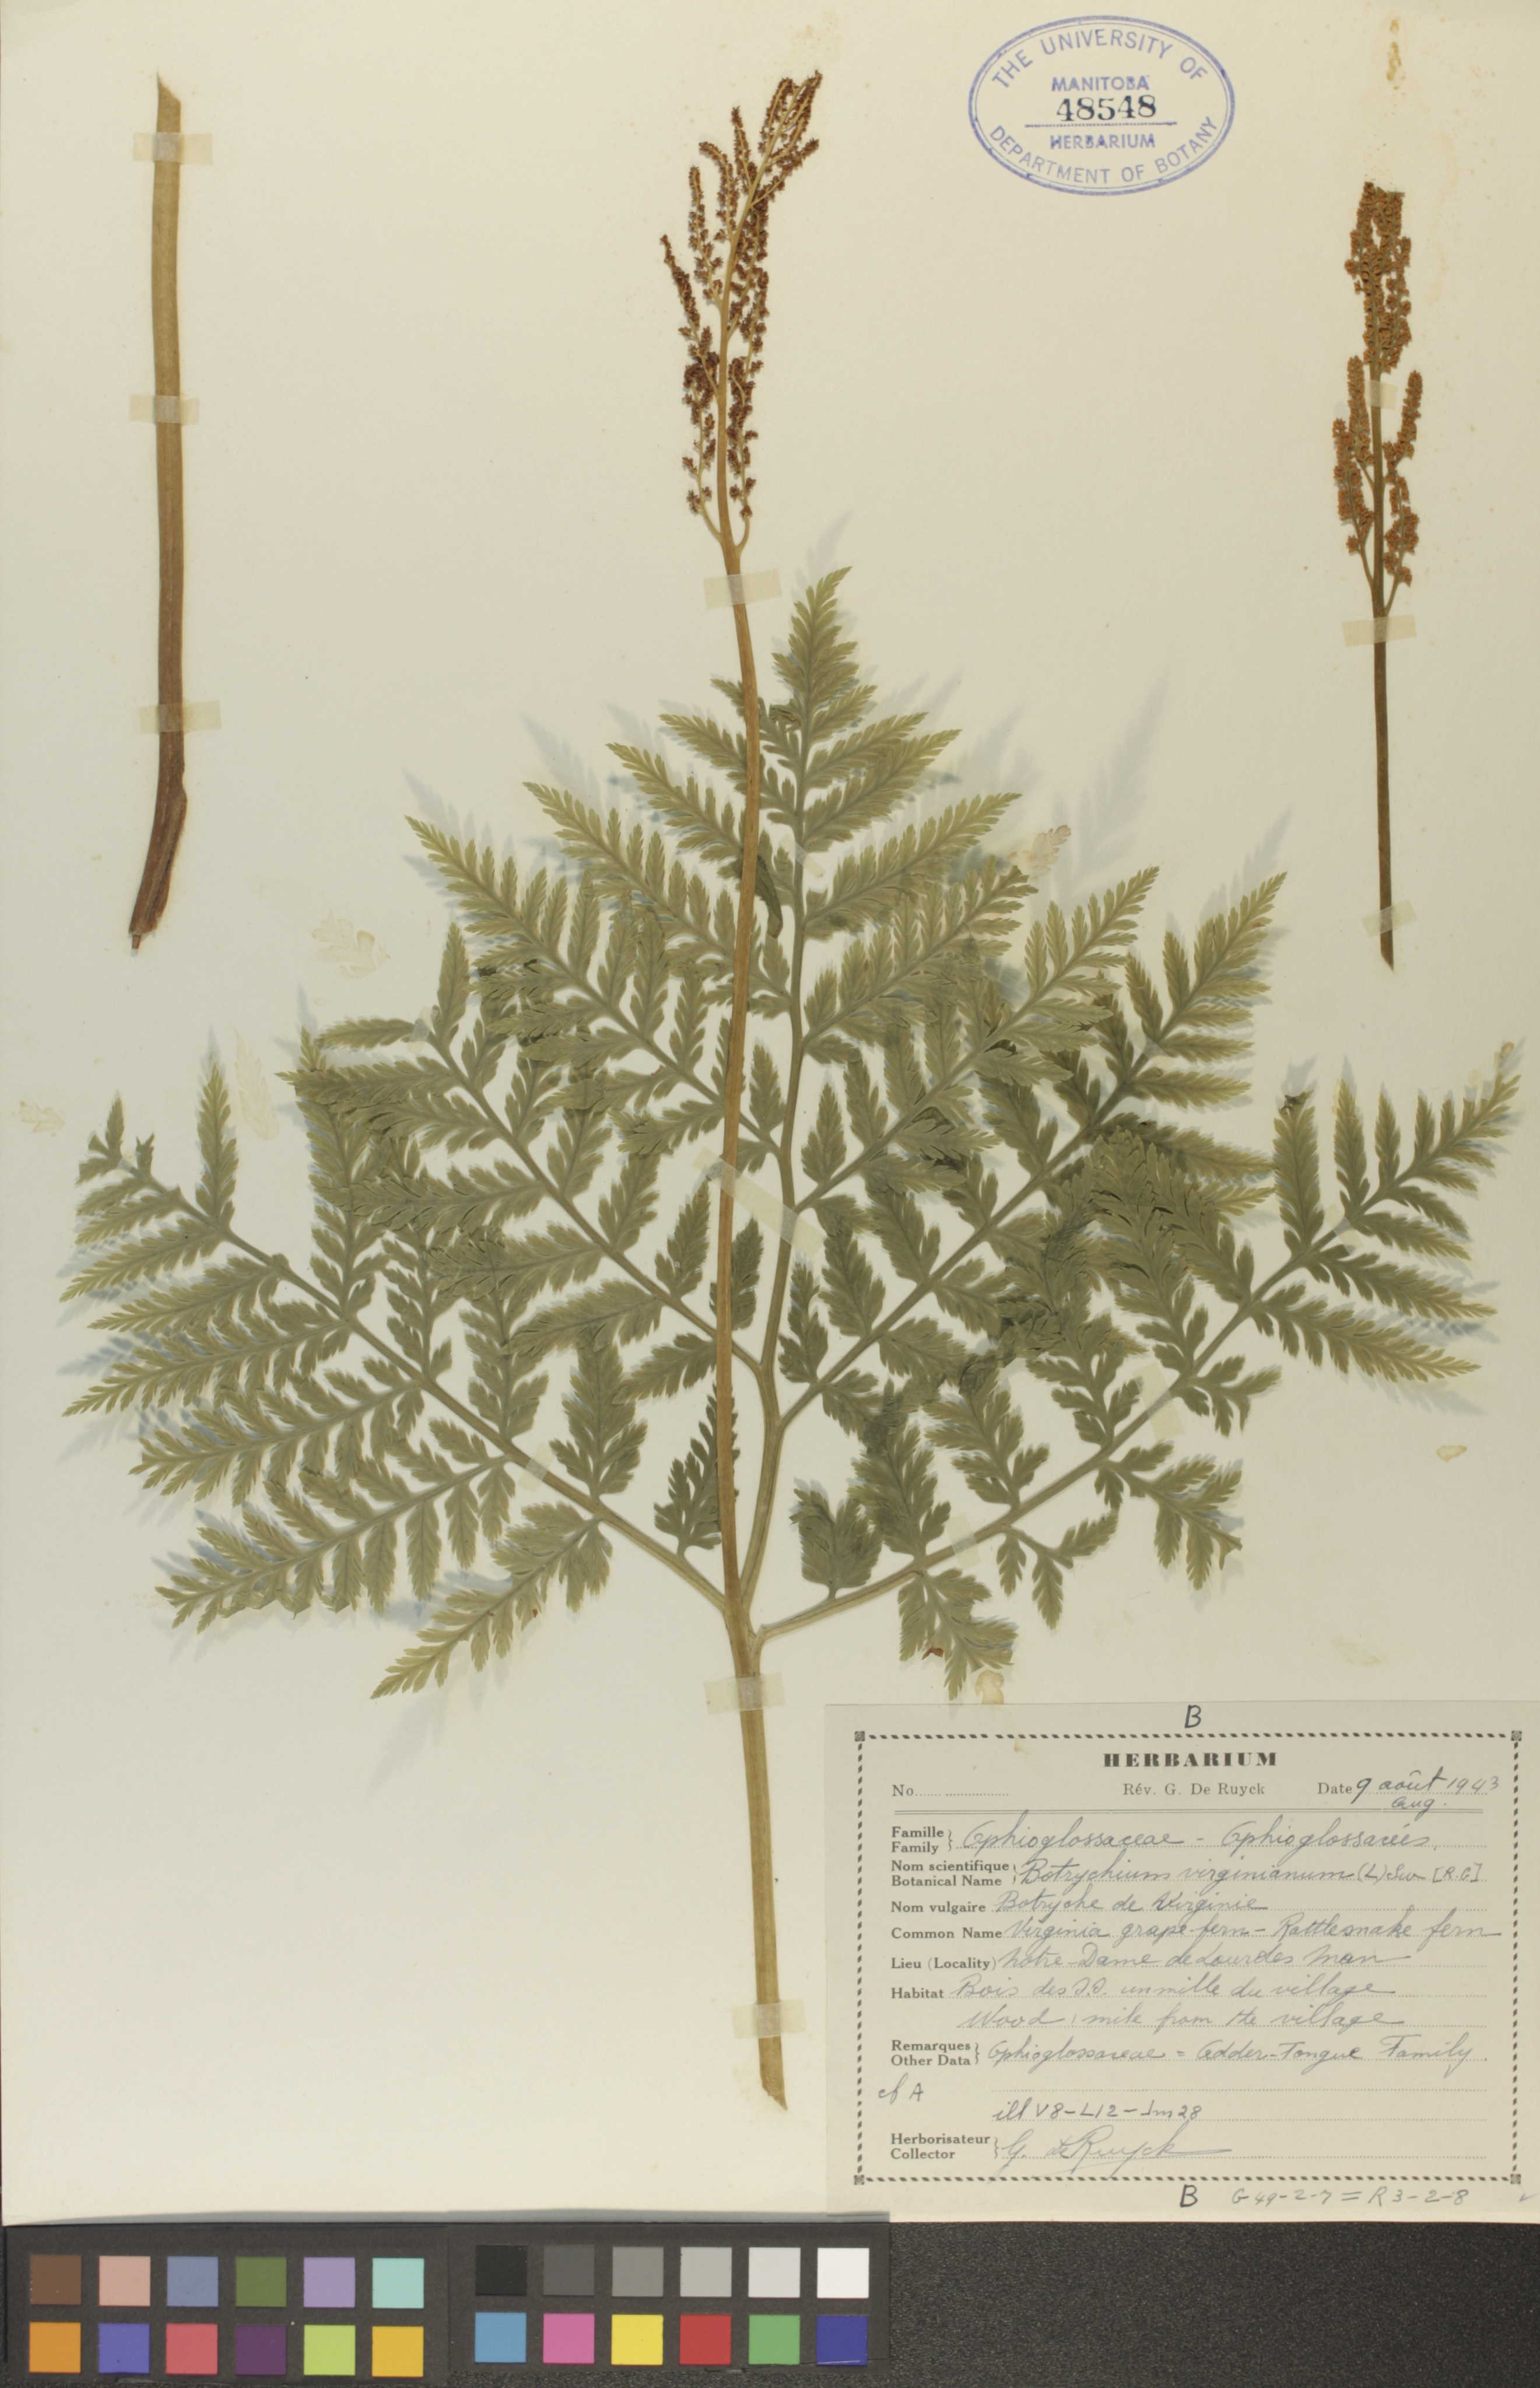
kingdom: Plantae
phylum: Tracheophyta
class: Polypodiopsida
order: Ophioglossales
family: Ophioglossaceae
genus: Botrypus
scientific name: Botrypus virginianus
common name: Common grapefern
